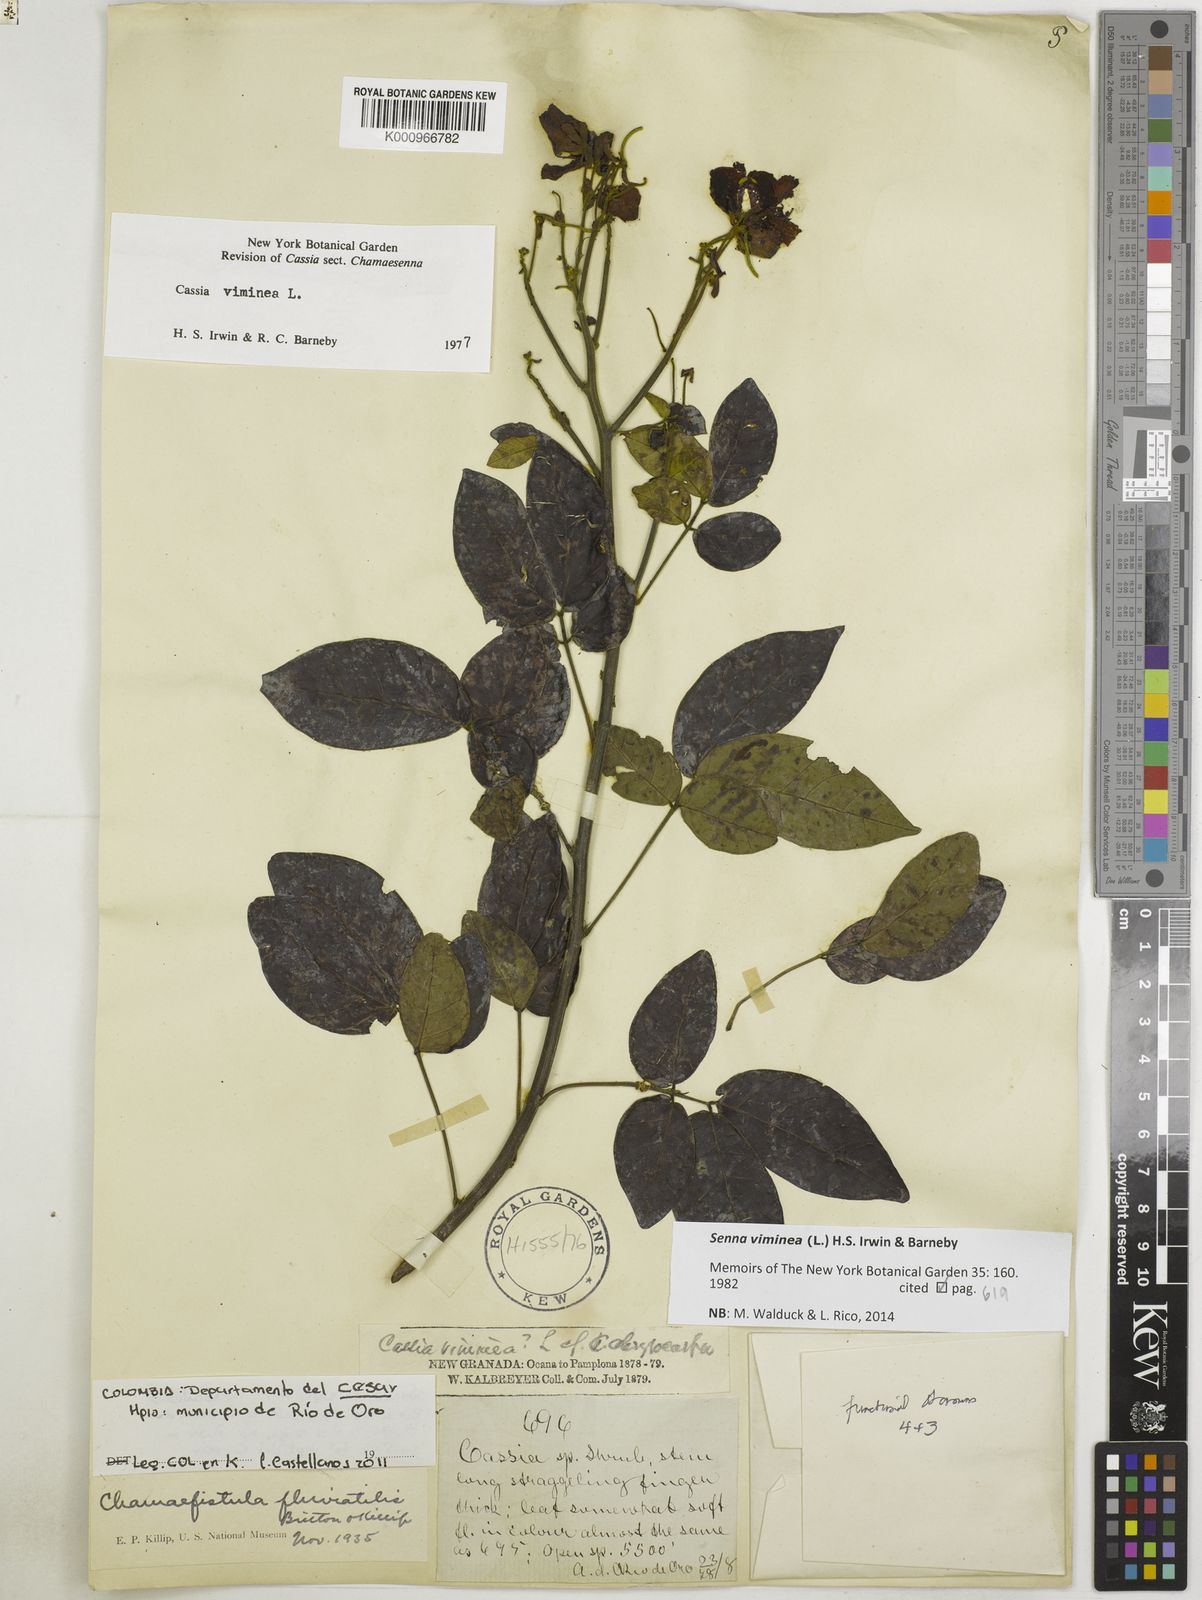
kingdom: Plantae
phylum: Tracheophyta
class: Magnoliopsida
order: Fabales
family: Fabaceae
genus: Senna
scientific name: Senna viminea
